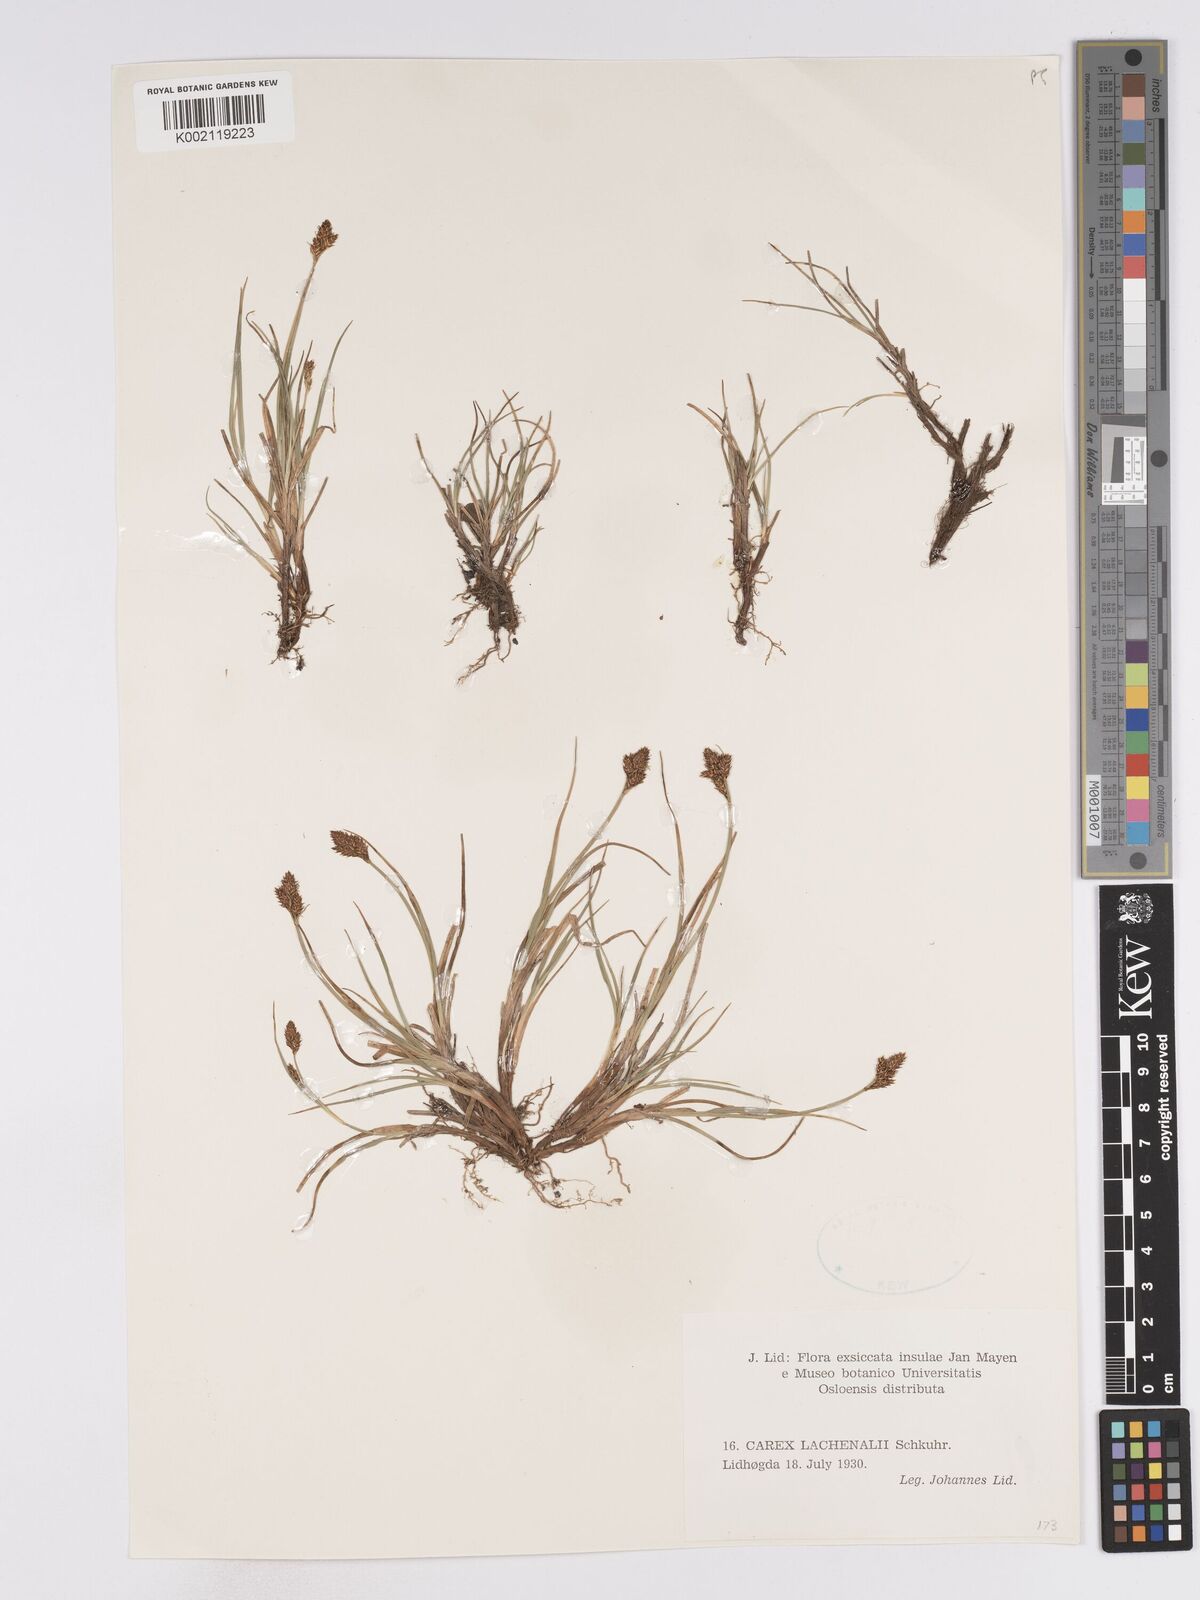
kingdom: Plantae
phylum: Tracheophyta
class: Liliopsida
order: Poales
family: Cyperaceae
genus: Carex
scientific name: Carex lachenalii
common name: Hare's-foot sedge
